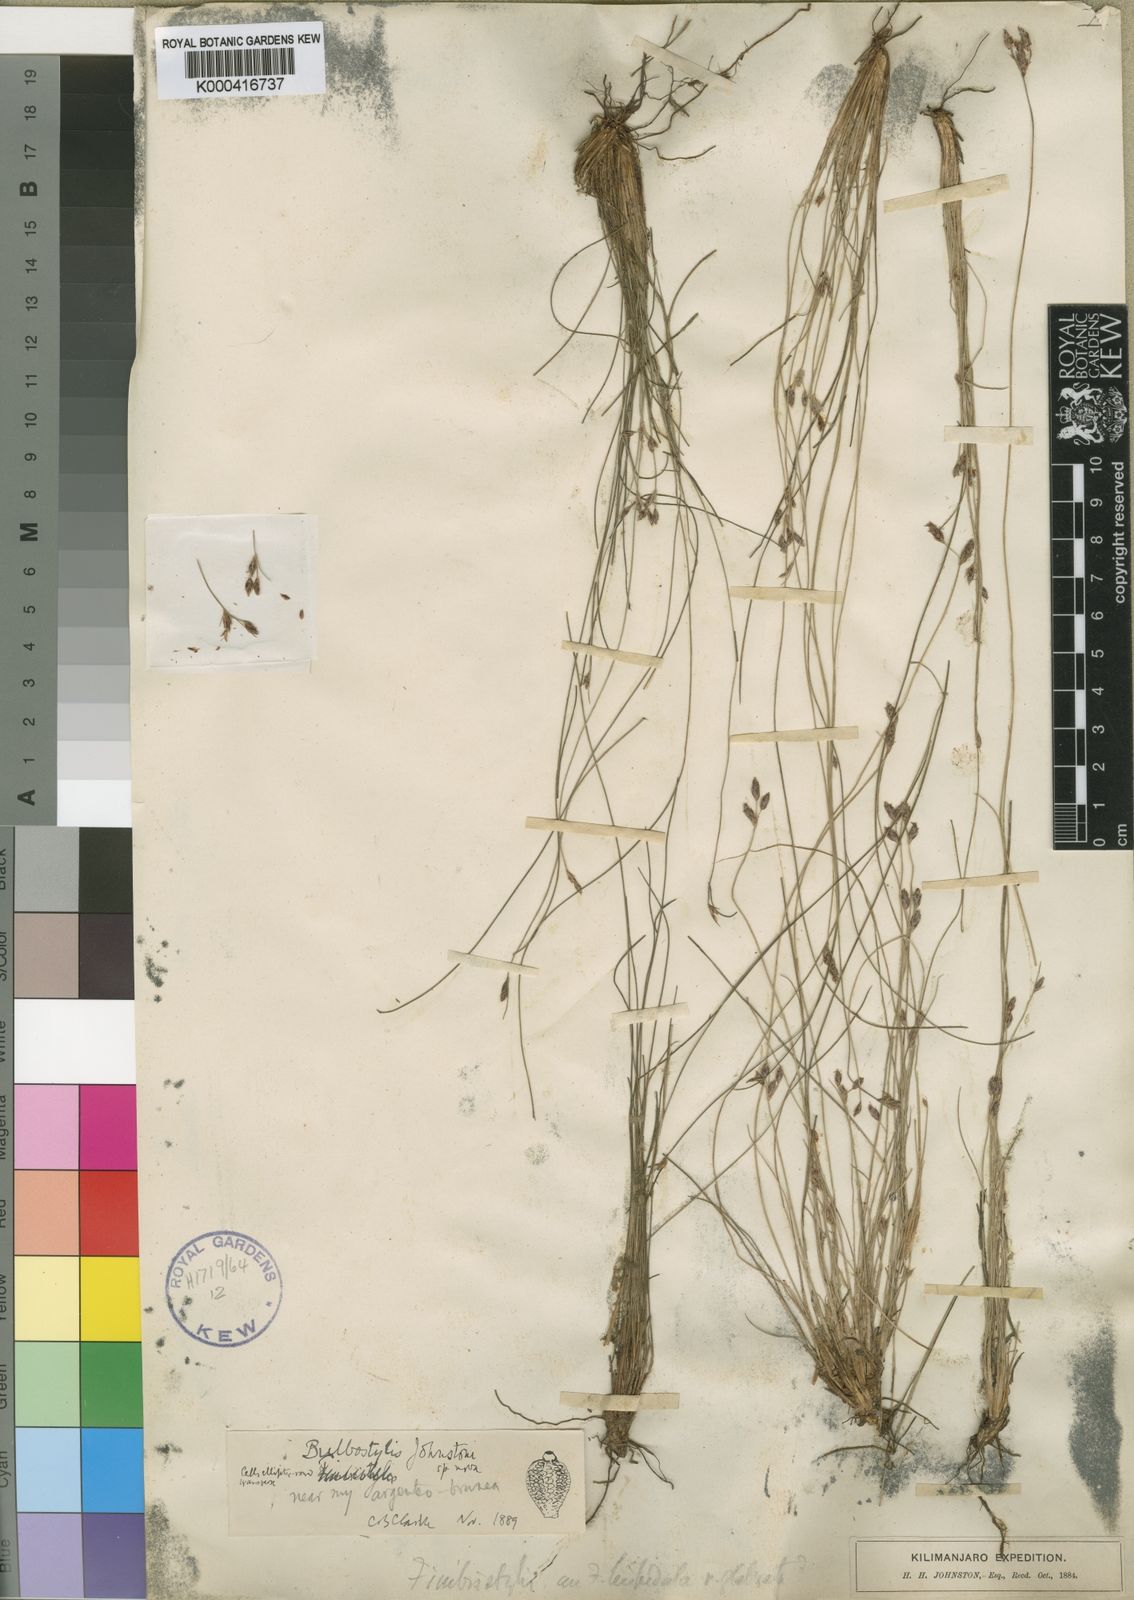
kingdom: Plantae
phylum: Tracheophyta
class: Liliopsida
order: Poales
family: Cyperaceae
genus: Bulbostylis
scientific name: Bulbostylis johnstonii
